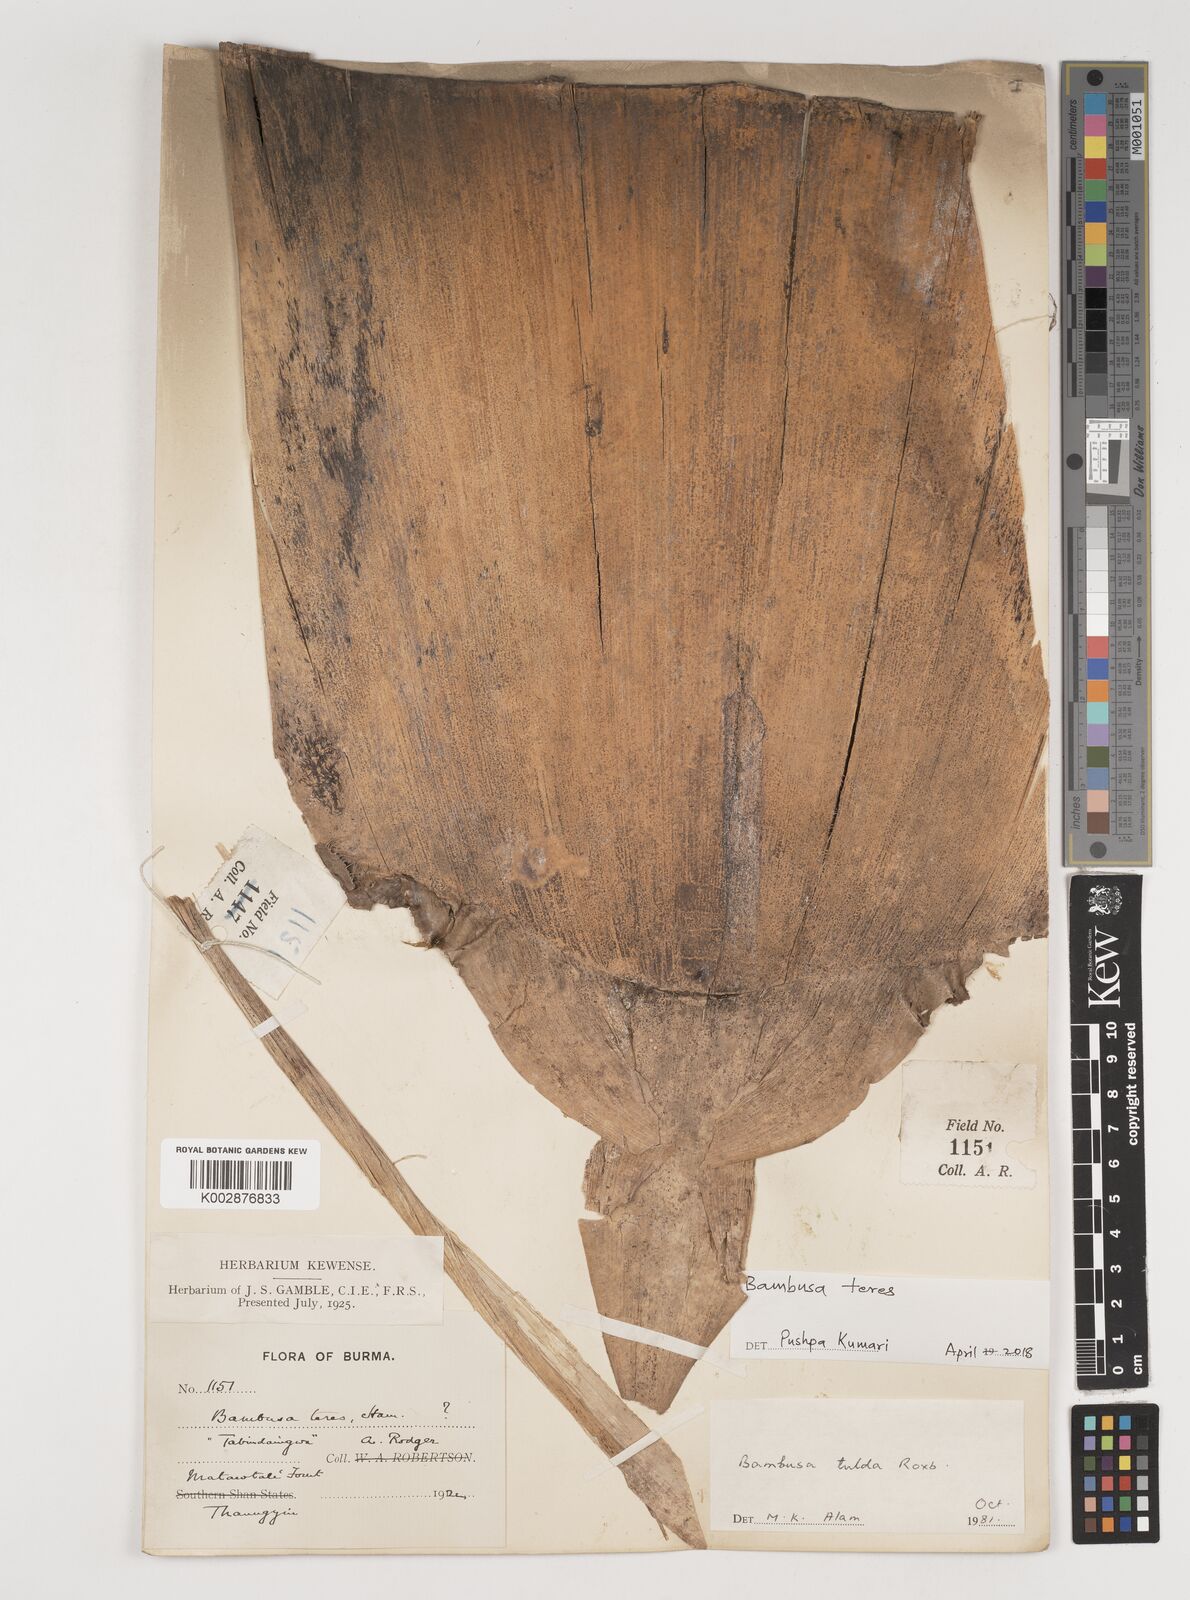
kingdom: Plantae
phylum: Tracheophyta
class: Liliopsida
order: Poales
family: Poaceae
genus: Bambusa
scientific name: Bambusa teres
